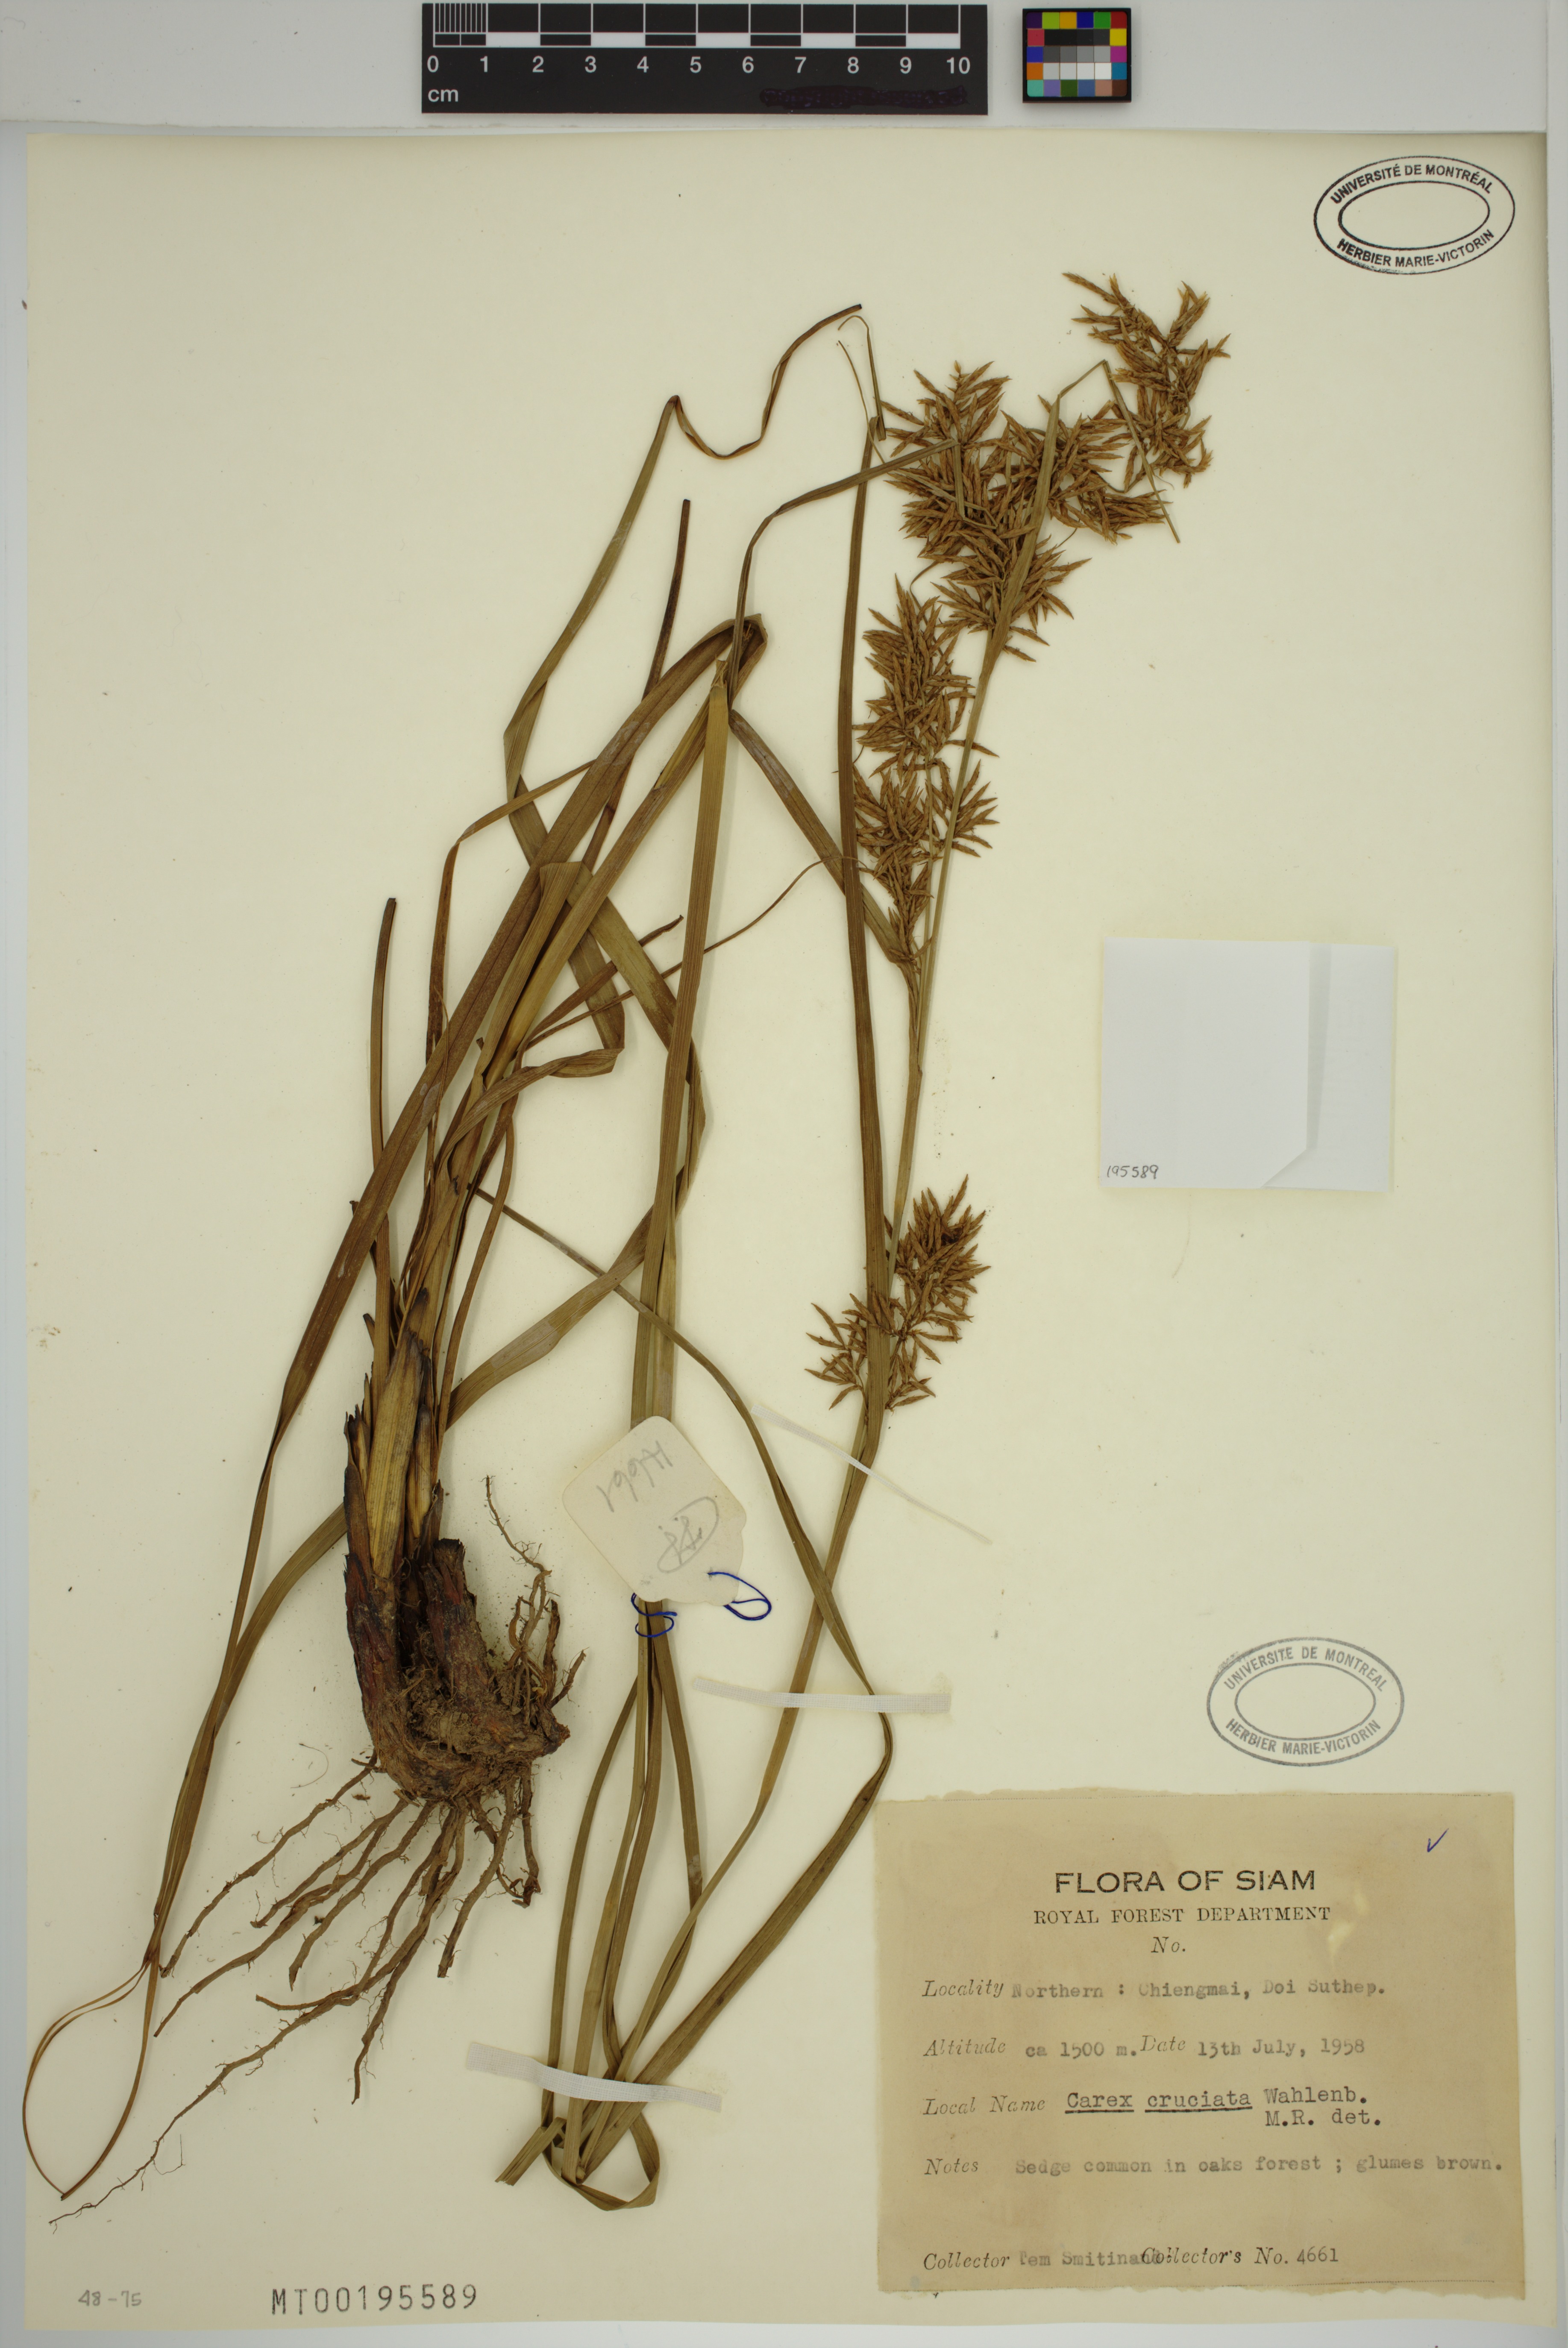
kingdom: Plantae
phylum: Tracheophyta
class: Liliopsida
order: Poales
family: Cyperaceae
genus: Carex
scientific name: Carex cruciata
